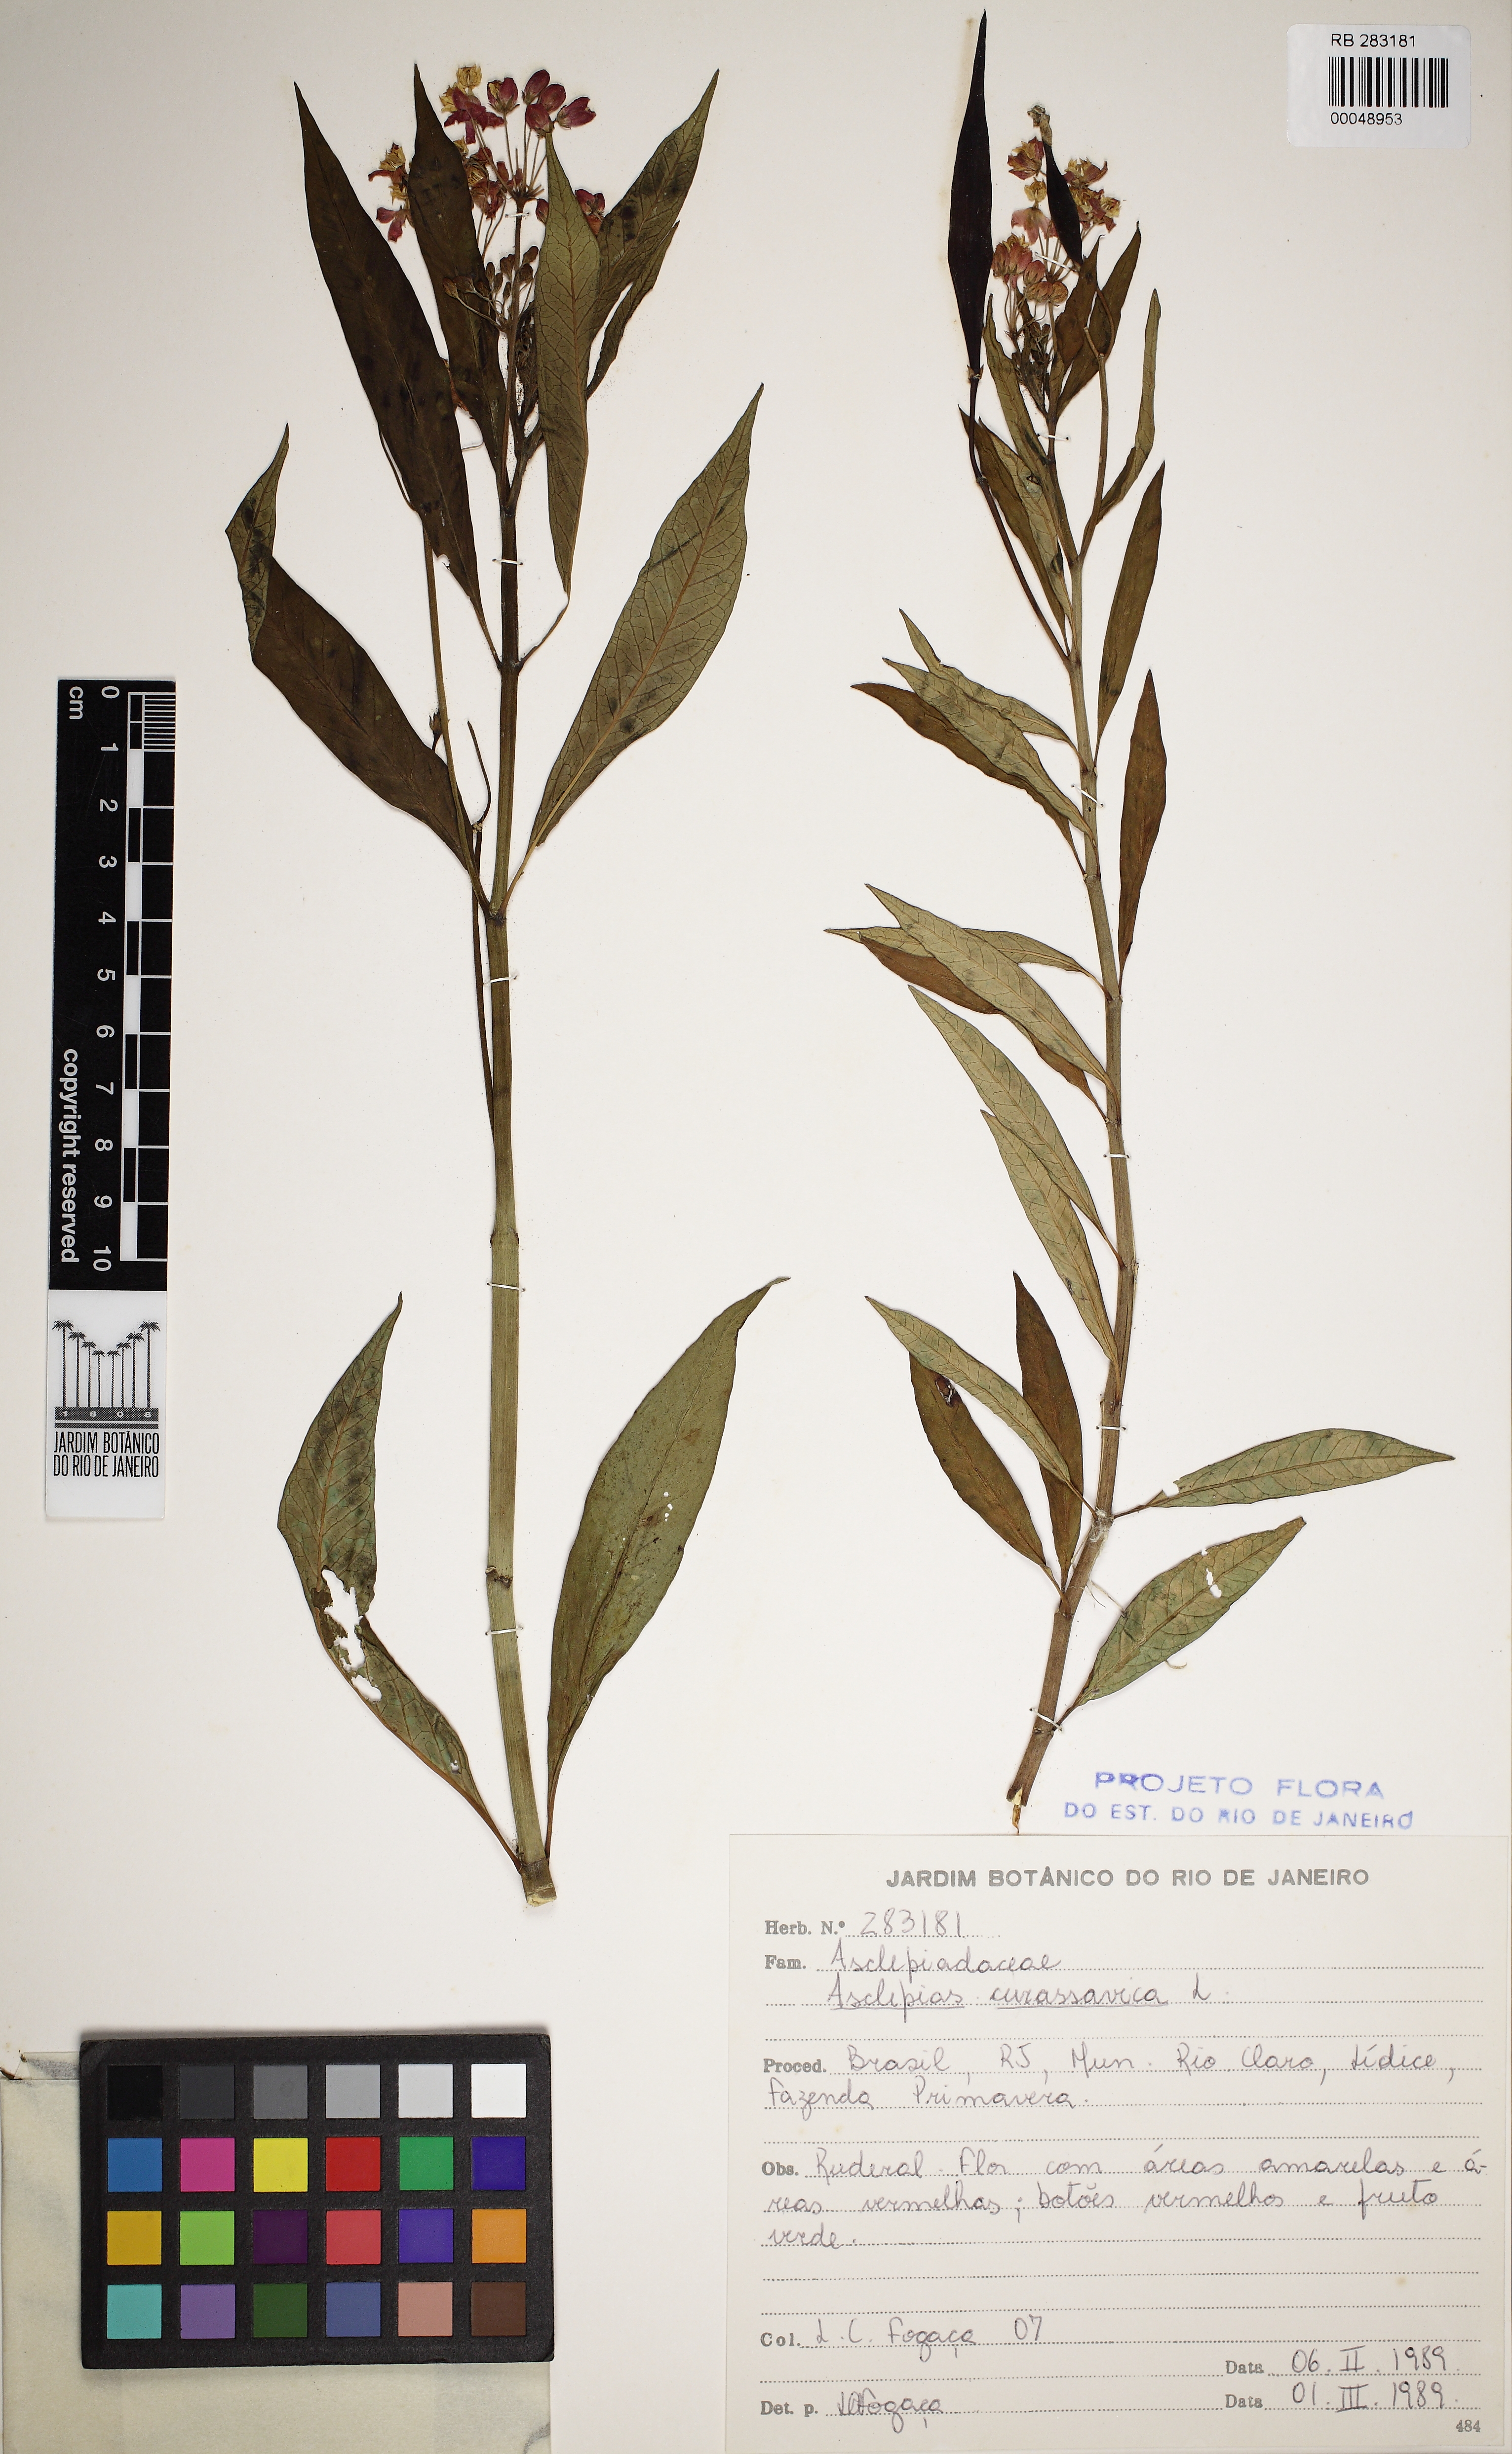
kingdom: Plantae
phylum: Tracheophyta
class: Magnoliopsida
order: Gentianales
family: Apocynaceae
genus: Asclepias
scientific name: Asclepias curassavica
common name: Bloodflower
